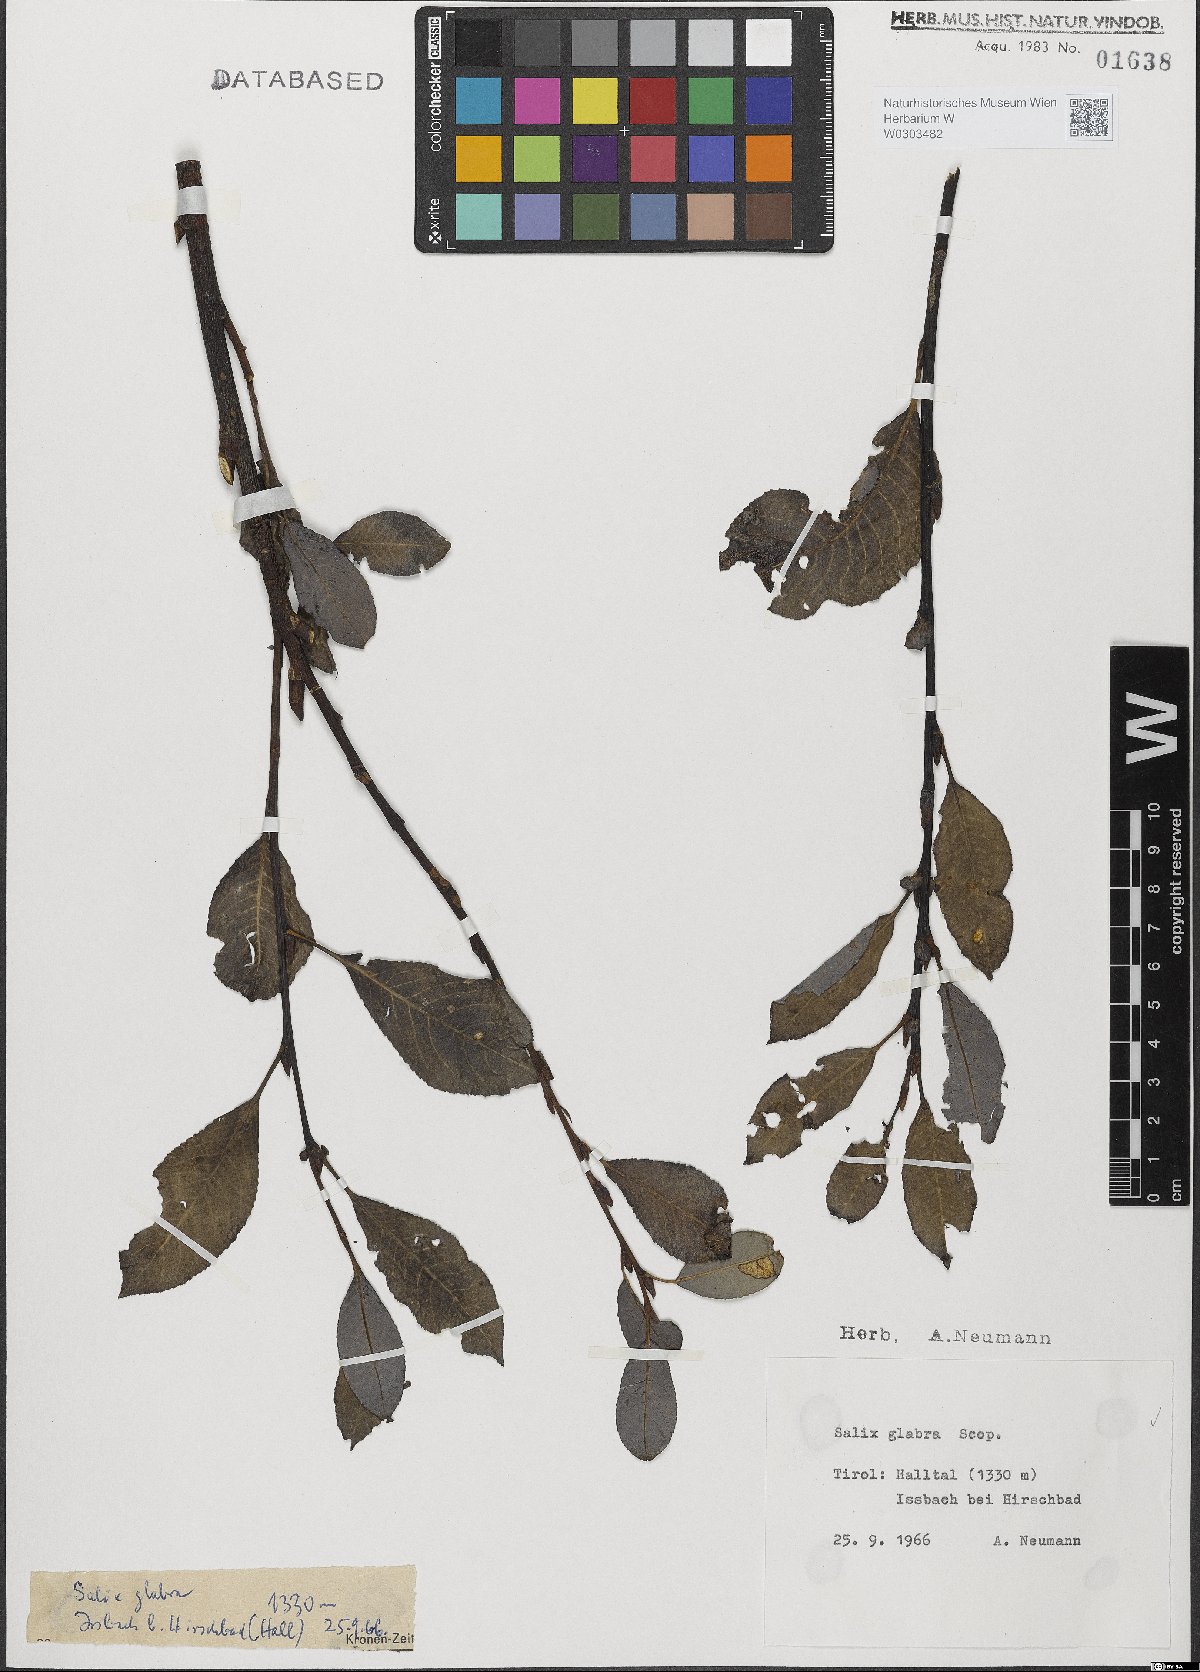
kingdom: Plantae
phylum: Tracheophyta
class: Magnoliopsida
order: Malpighiales
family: Salicaceae
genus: Salix
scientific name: Salix glabra
